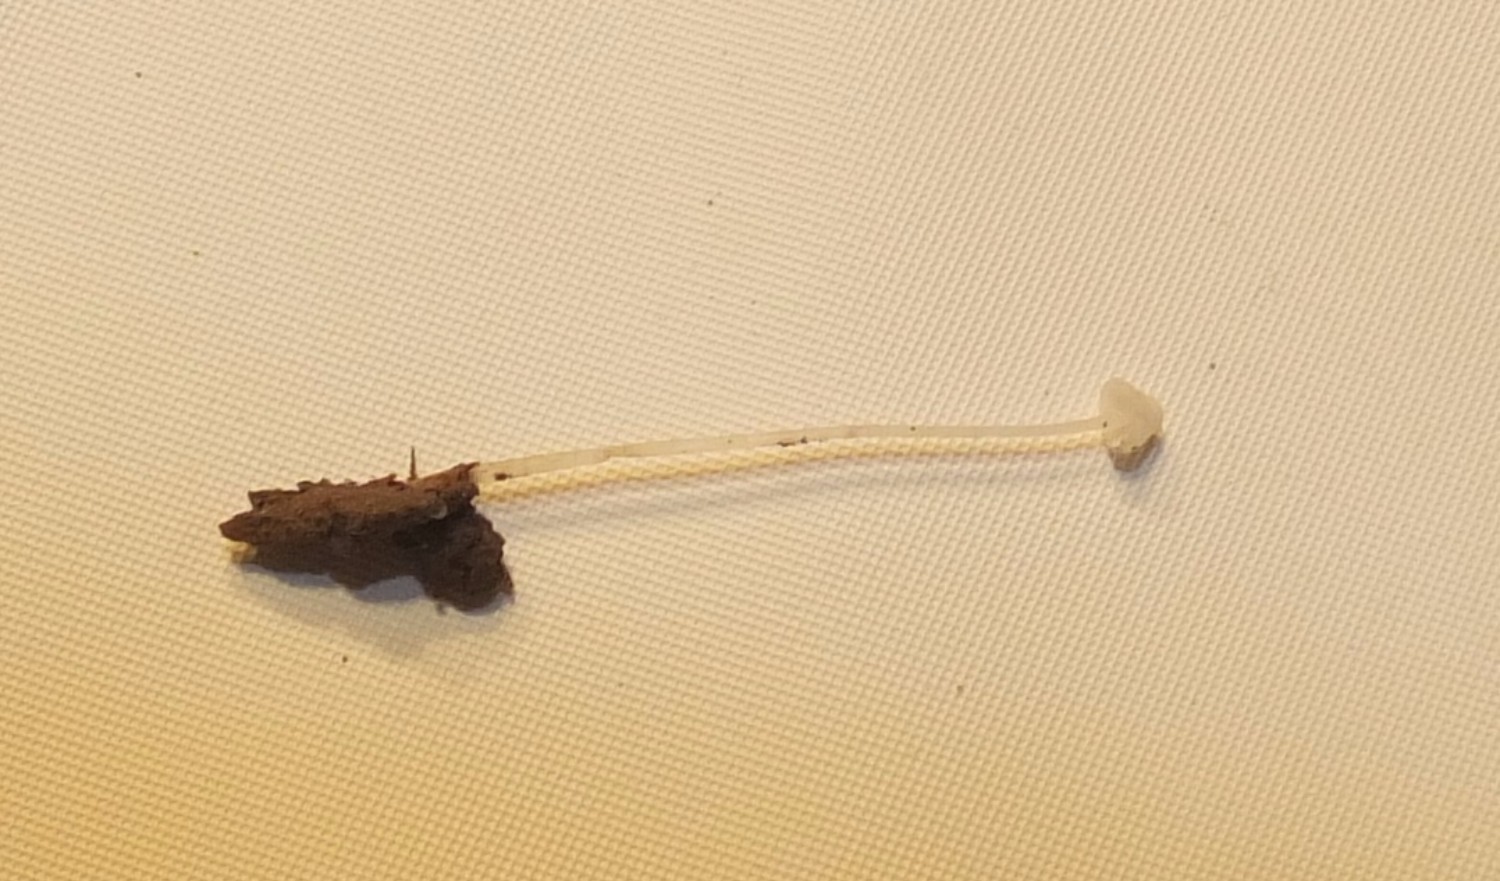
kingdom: Fungi
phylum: Basidiomycota
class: Agaricomycetes
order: Agaricales
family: Mycenaceae
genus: Hemimycena
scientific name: Hemimycena
